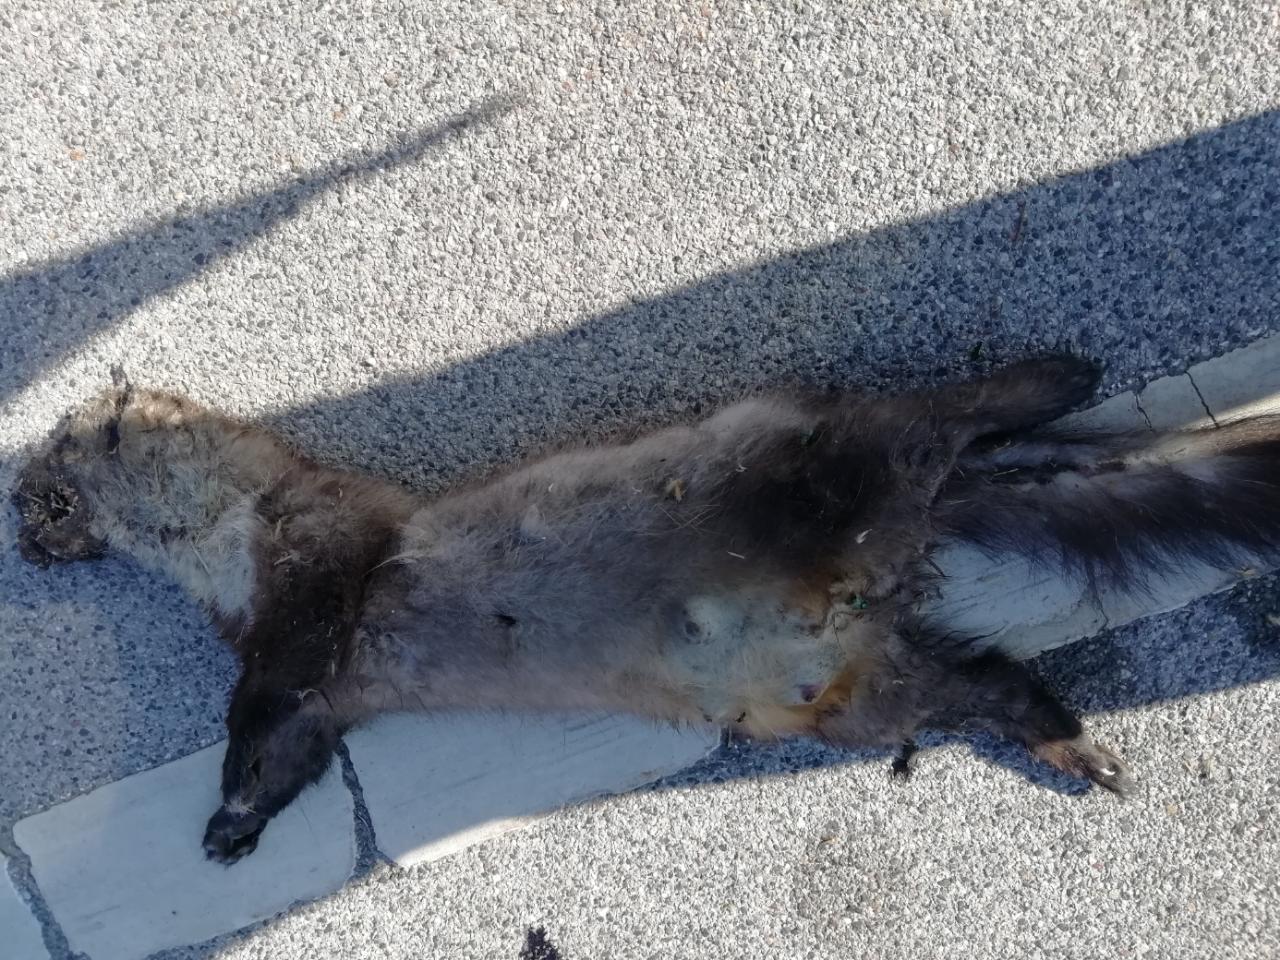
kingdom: Animalia
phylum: Chordata
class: Mammalia
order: Carnivora
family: Mustelidae
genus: Martes
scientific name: Martes
